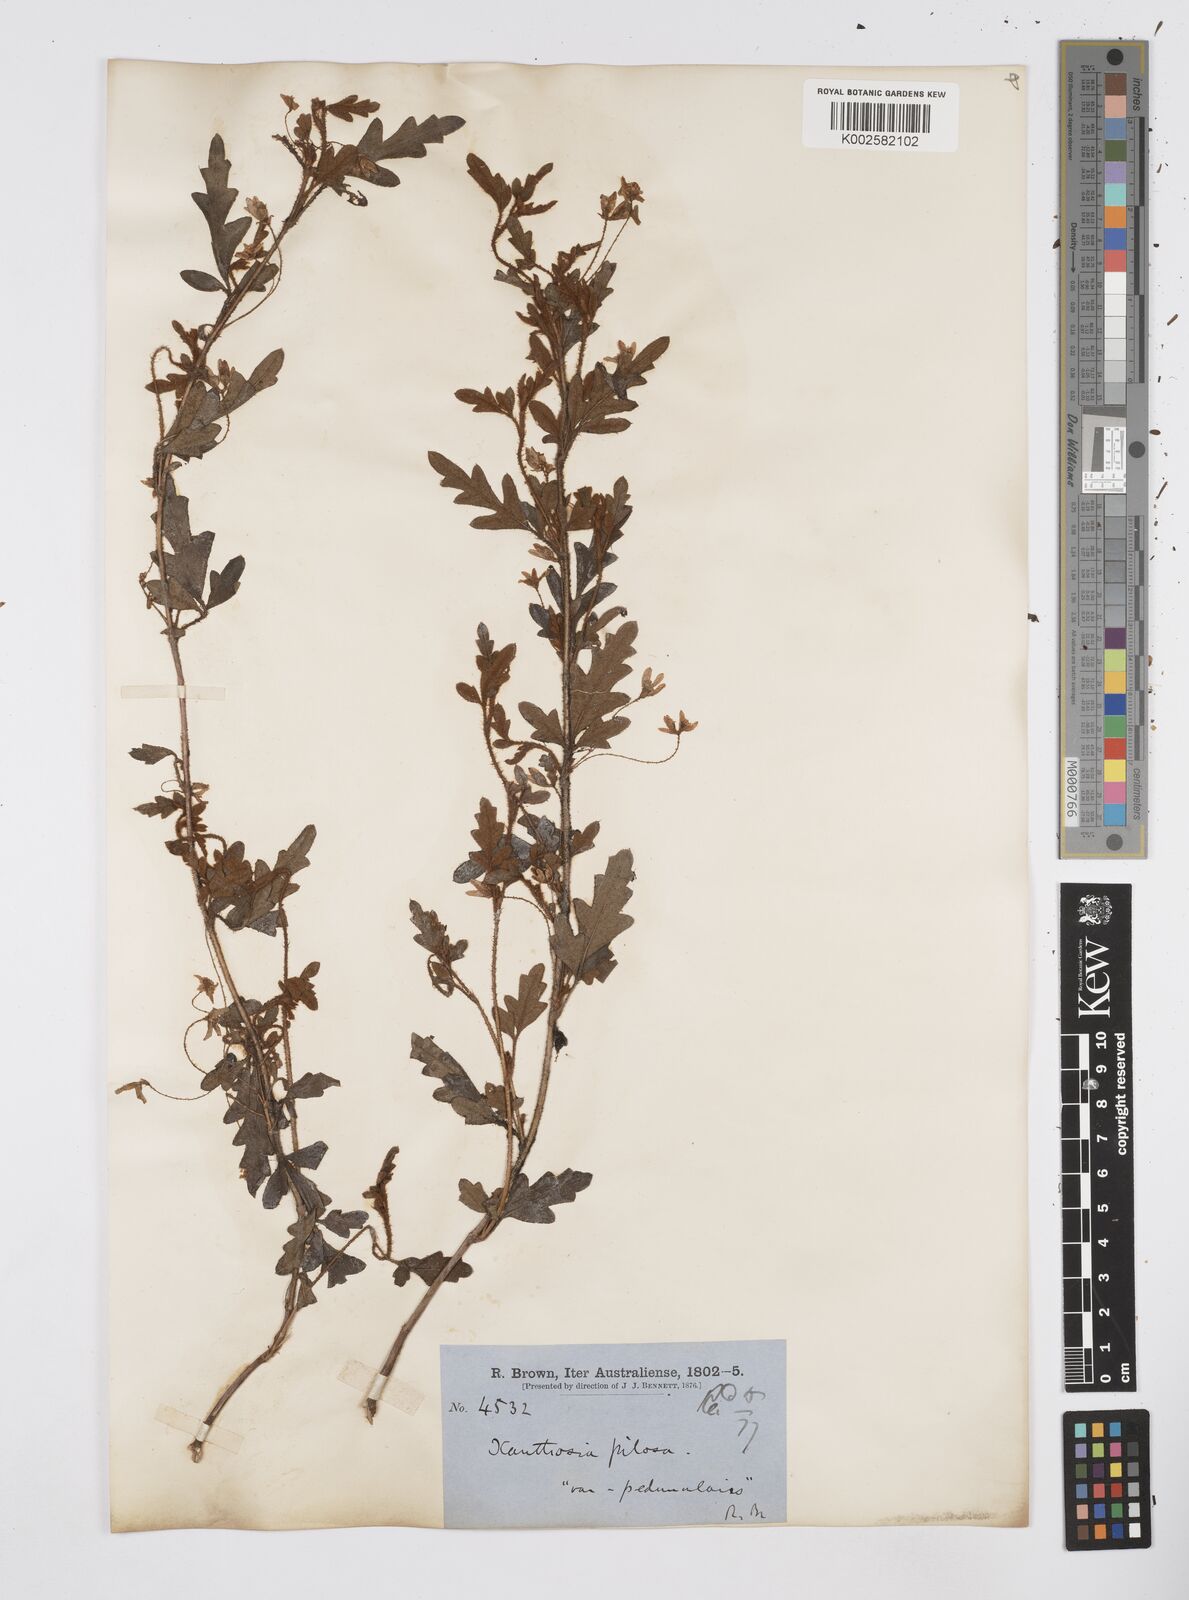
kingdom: Plantae
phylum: Tracheophyta
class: Magnoliopsida
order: Apiales
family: Apiaceae
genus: Xanthosia
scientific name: Xanthosia pilosa
